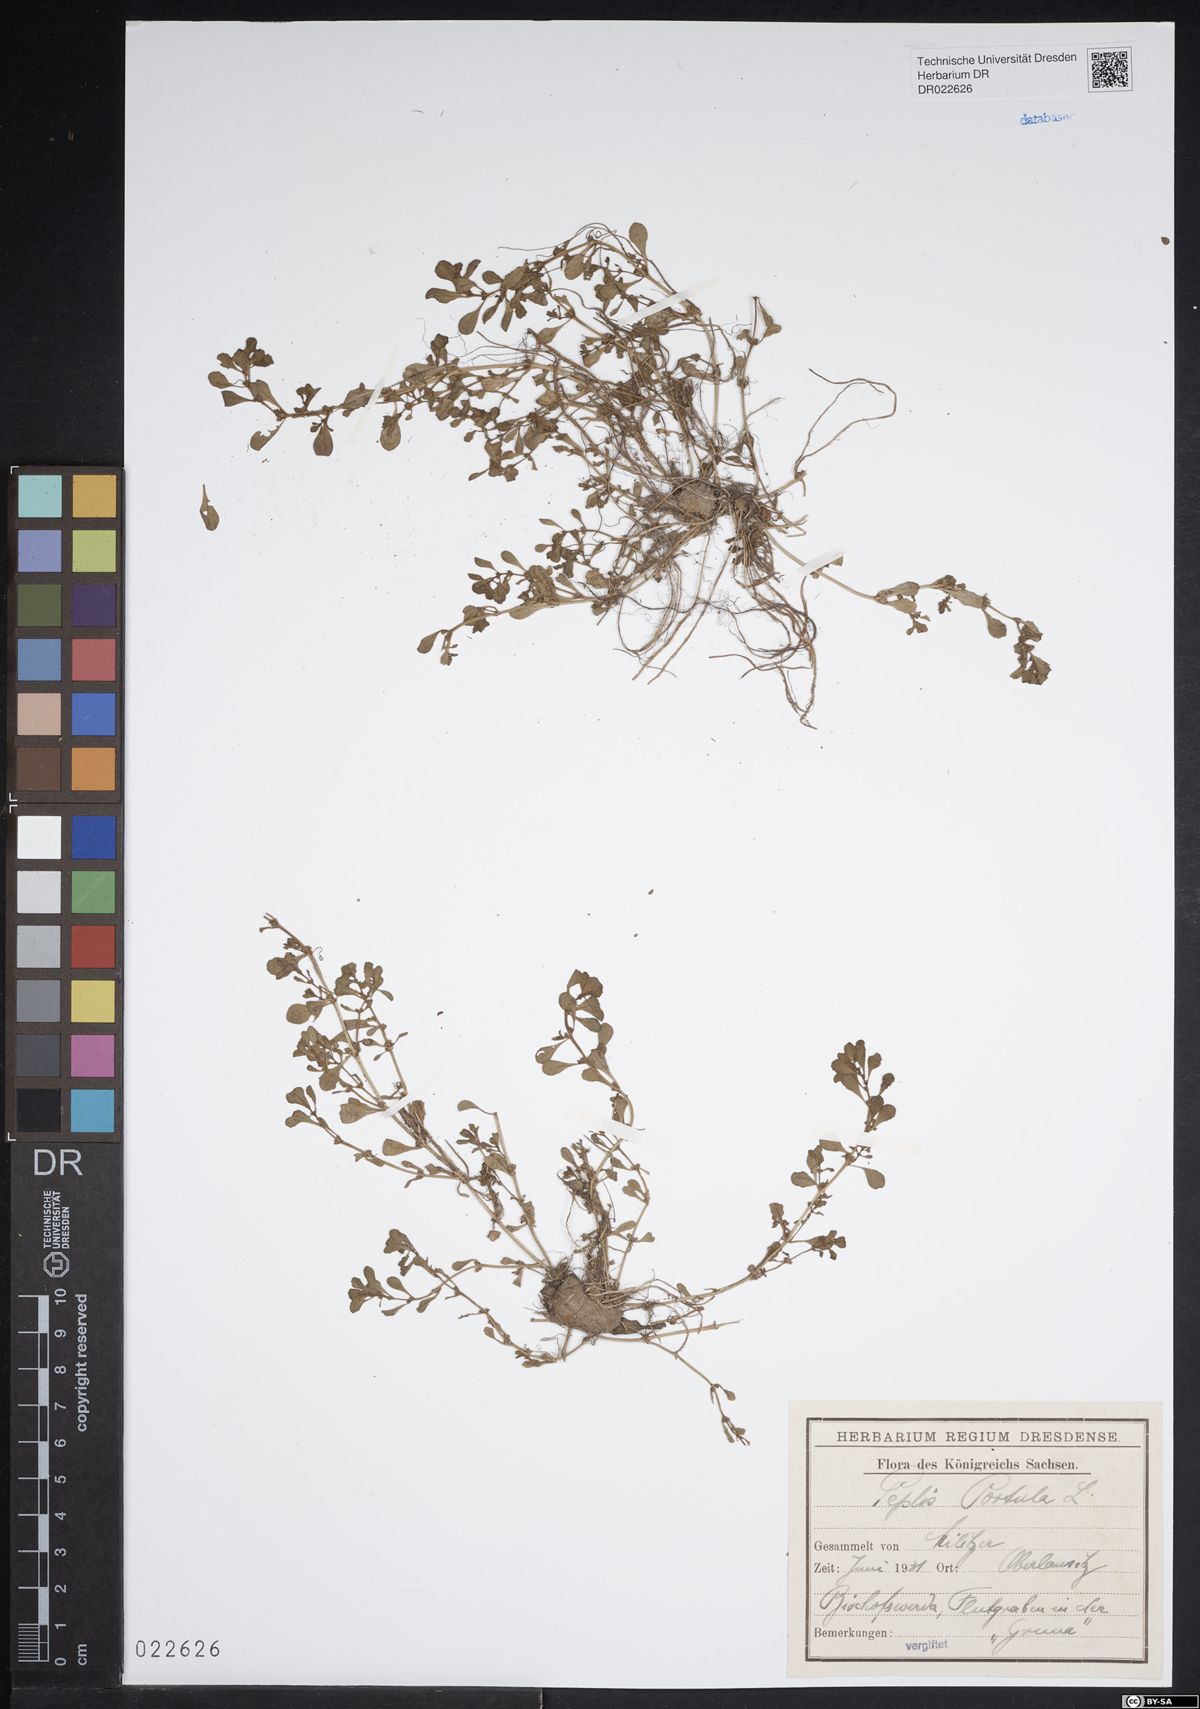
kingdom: Plantae
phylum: Tracheophyta
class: Magnoliopsida
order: Myrtales
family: Lythraceae
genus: Lythrum
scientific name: Lythrum portula
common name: Water purslane
